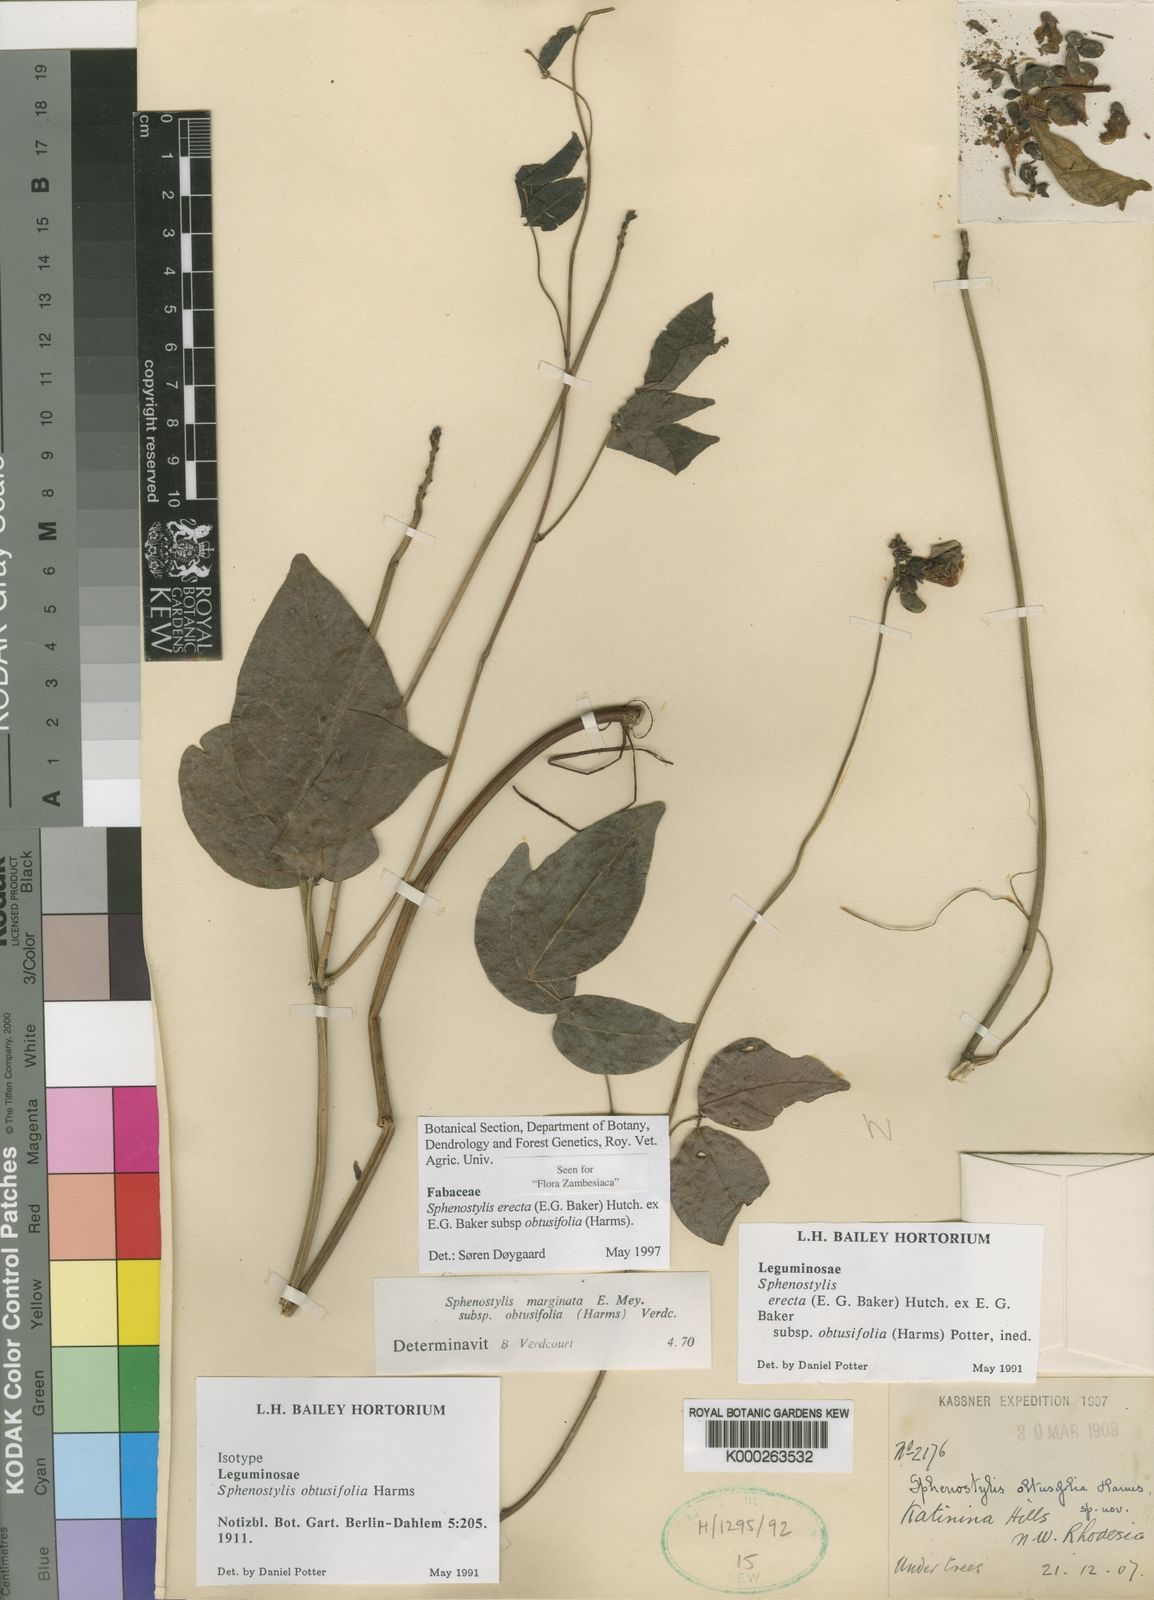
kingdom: Plantae
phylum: Tracheophyta
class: Magnoliopsida
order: Fabales
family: Fabaceae
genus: Sphenostylis
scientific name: Sphenostylis erecta
